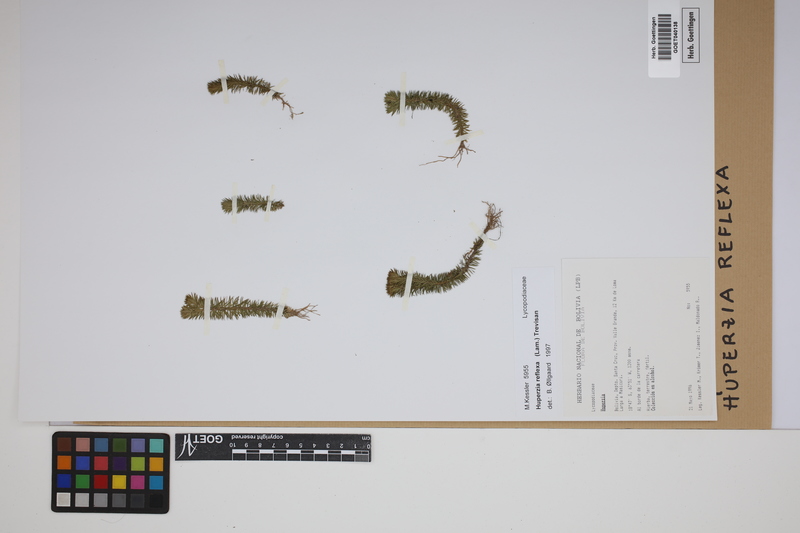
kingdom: Plantae
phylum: Tracheophyta
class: Lycopodiopsida
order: Lycopodiales
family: Lycopodiaceae
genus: Phlegmariurus
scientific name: Phlegmariurus reflexus
